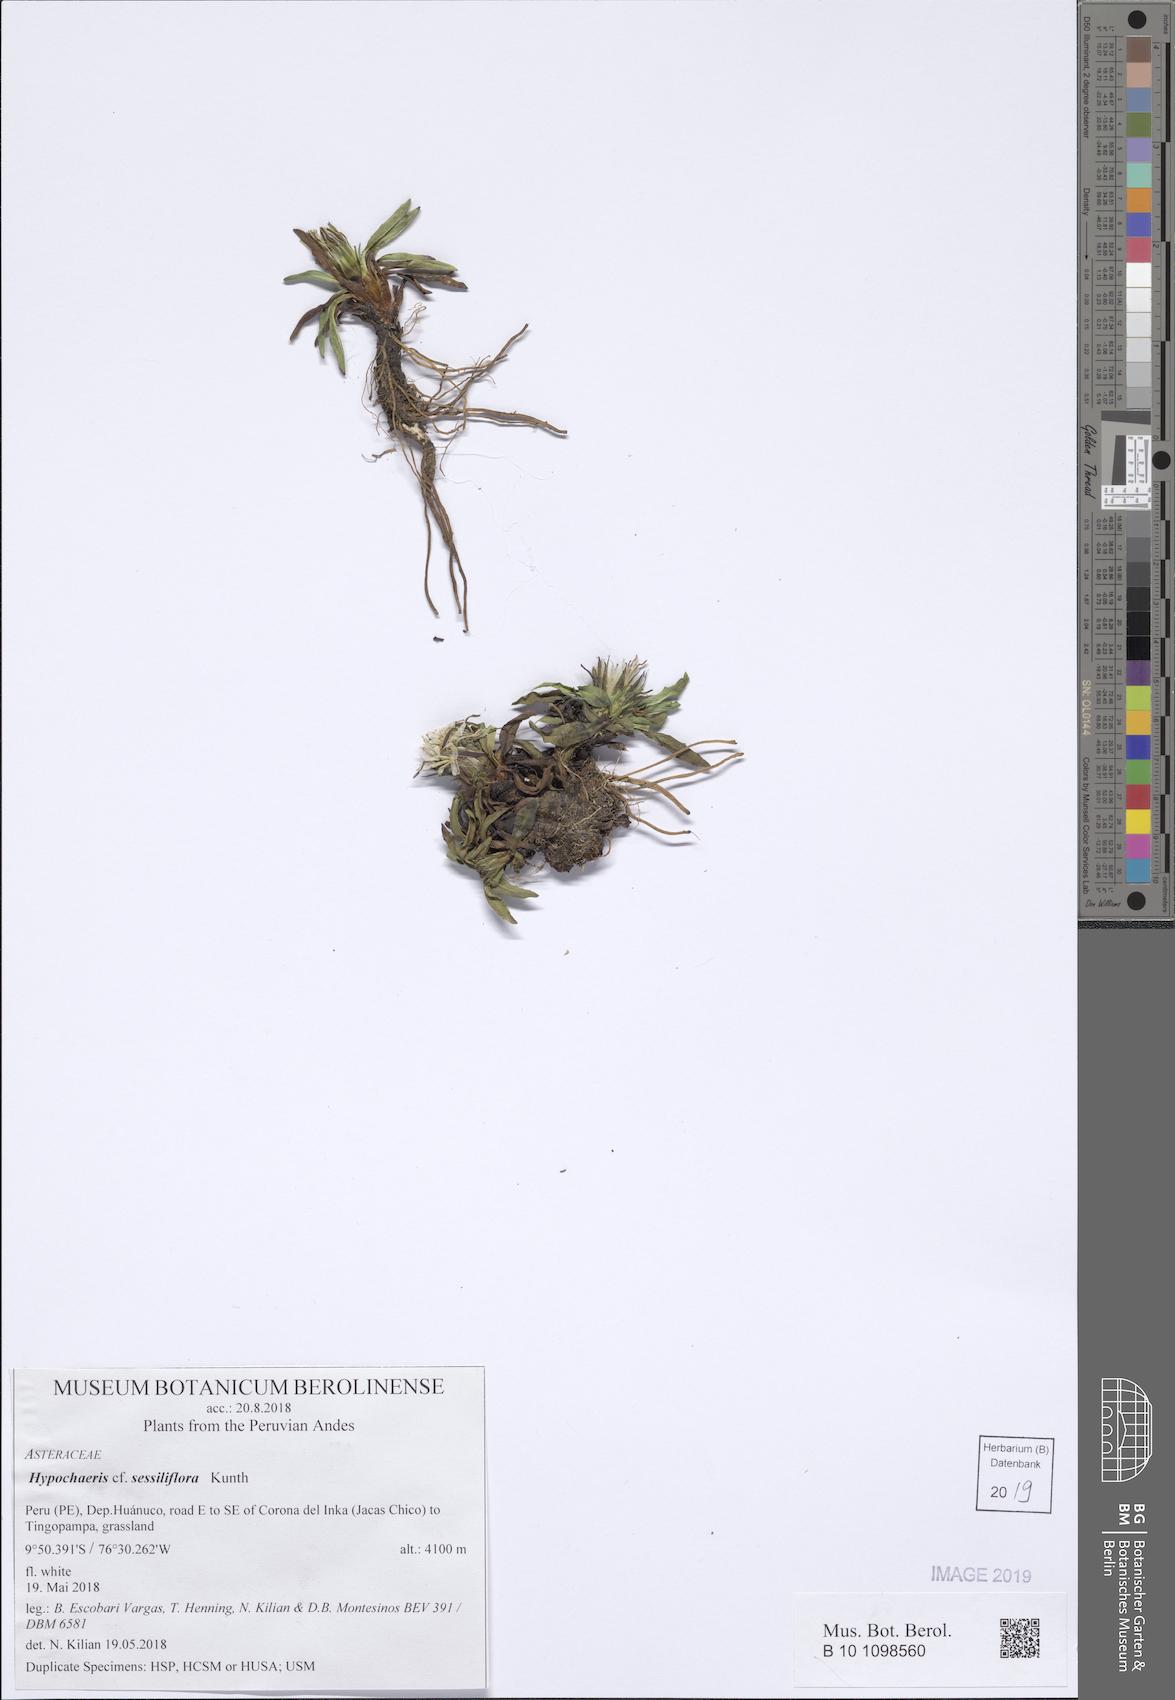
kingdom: Plantae
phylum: Tracheophyta
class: Magnoliopsida
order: Asterales
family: Asteraceae
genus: Hypochaeris
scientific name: Hypochaeris sessiliflora
